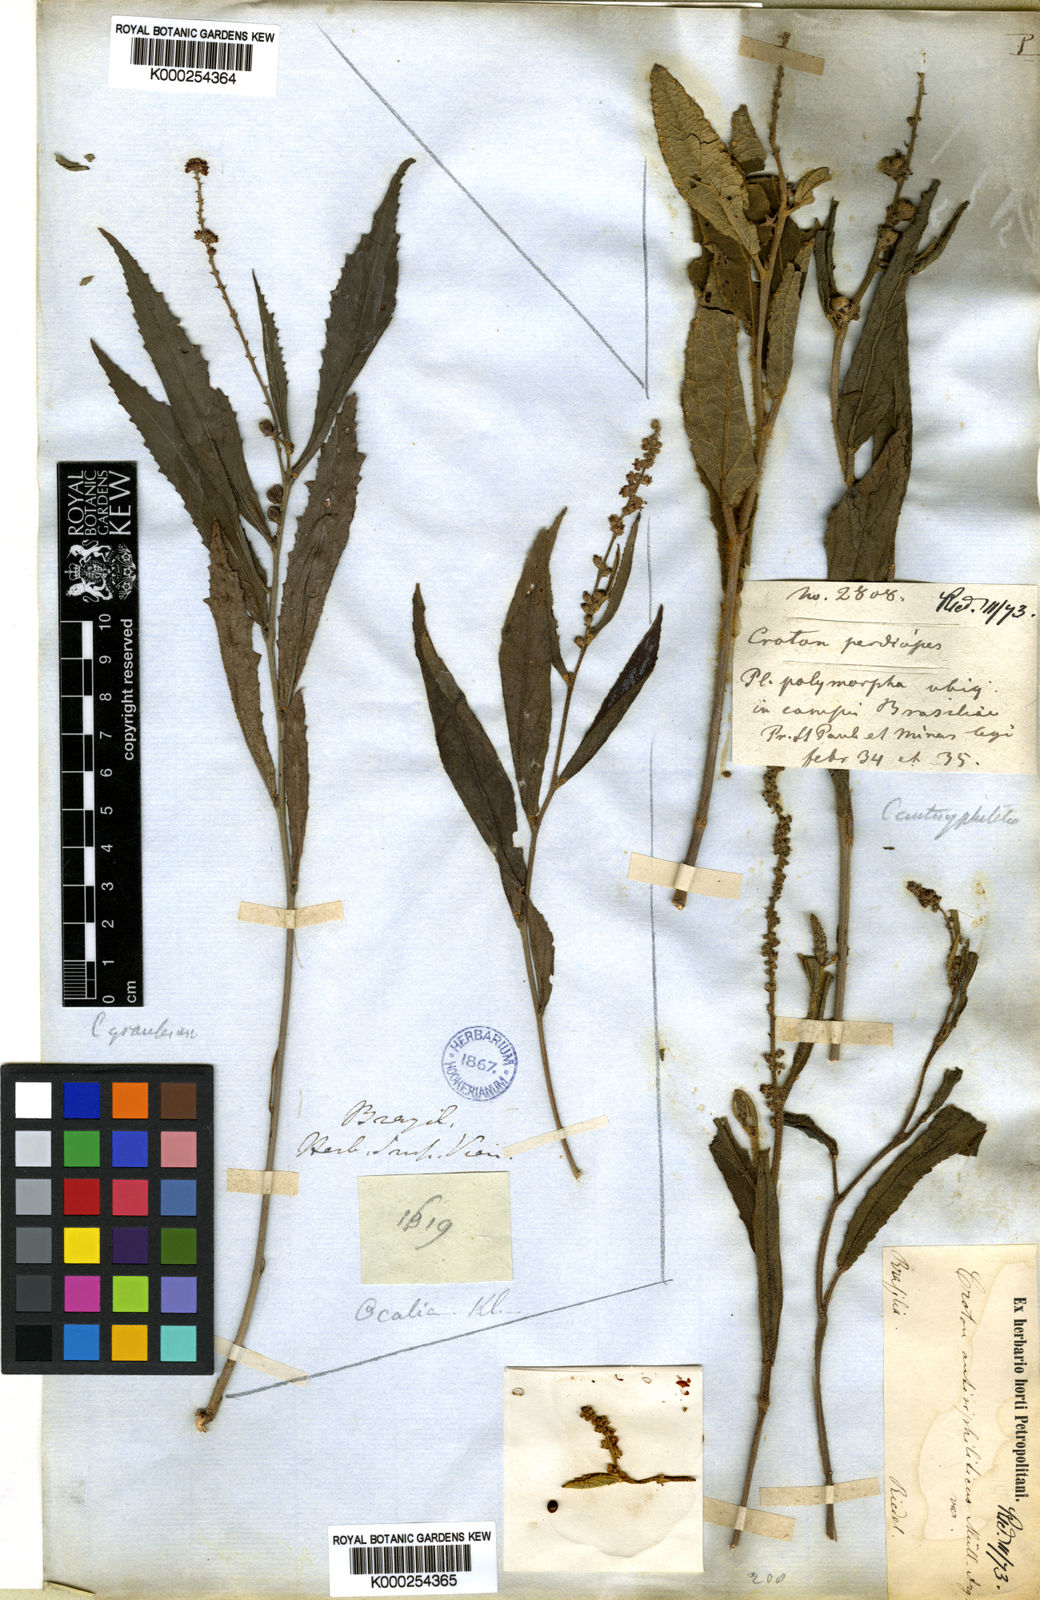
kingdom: Plantae
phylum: Tracheophyta
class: Magnoliopsida
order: Malpighiales
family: Euphorbiaceae
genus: Croton
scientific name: Croton
